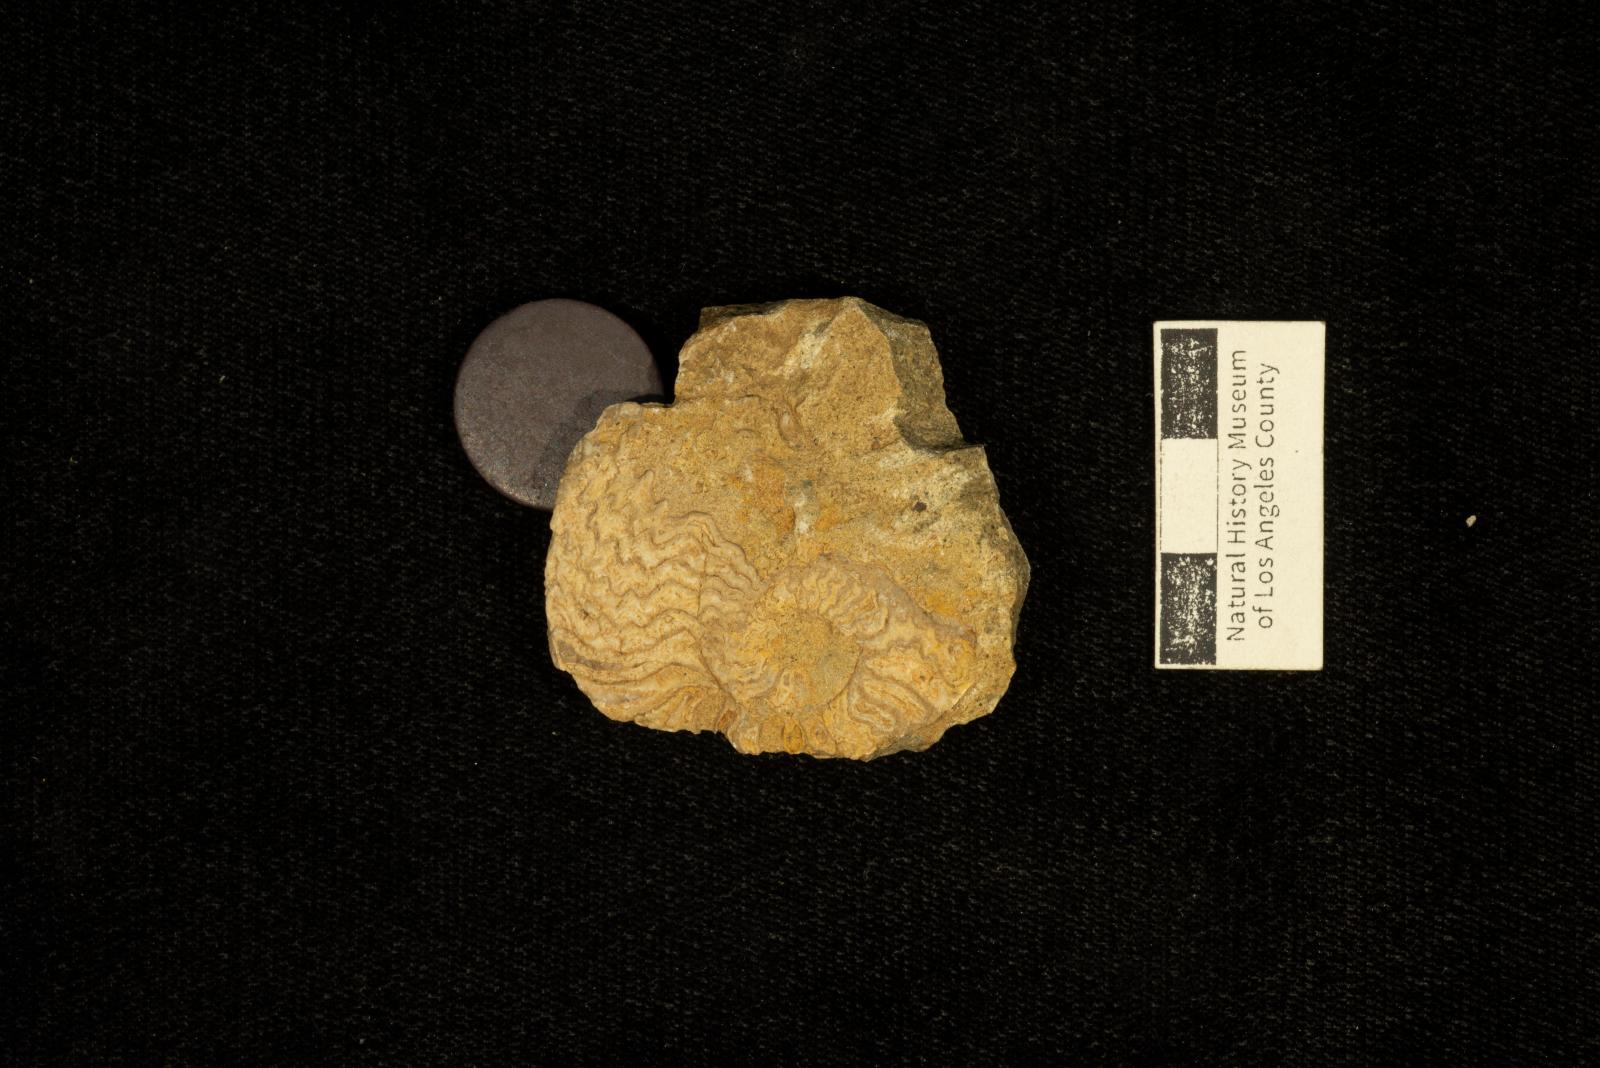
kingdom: Animalia
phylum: Mollusca
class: Cephalopoda
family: Placenticeratidae
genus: Metaplacenticeras
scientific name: Metaplacenticeras Placenticeras pacificum
